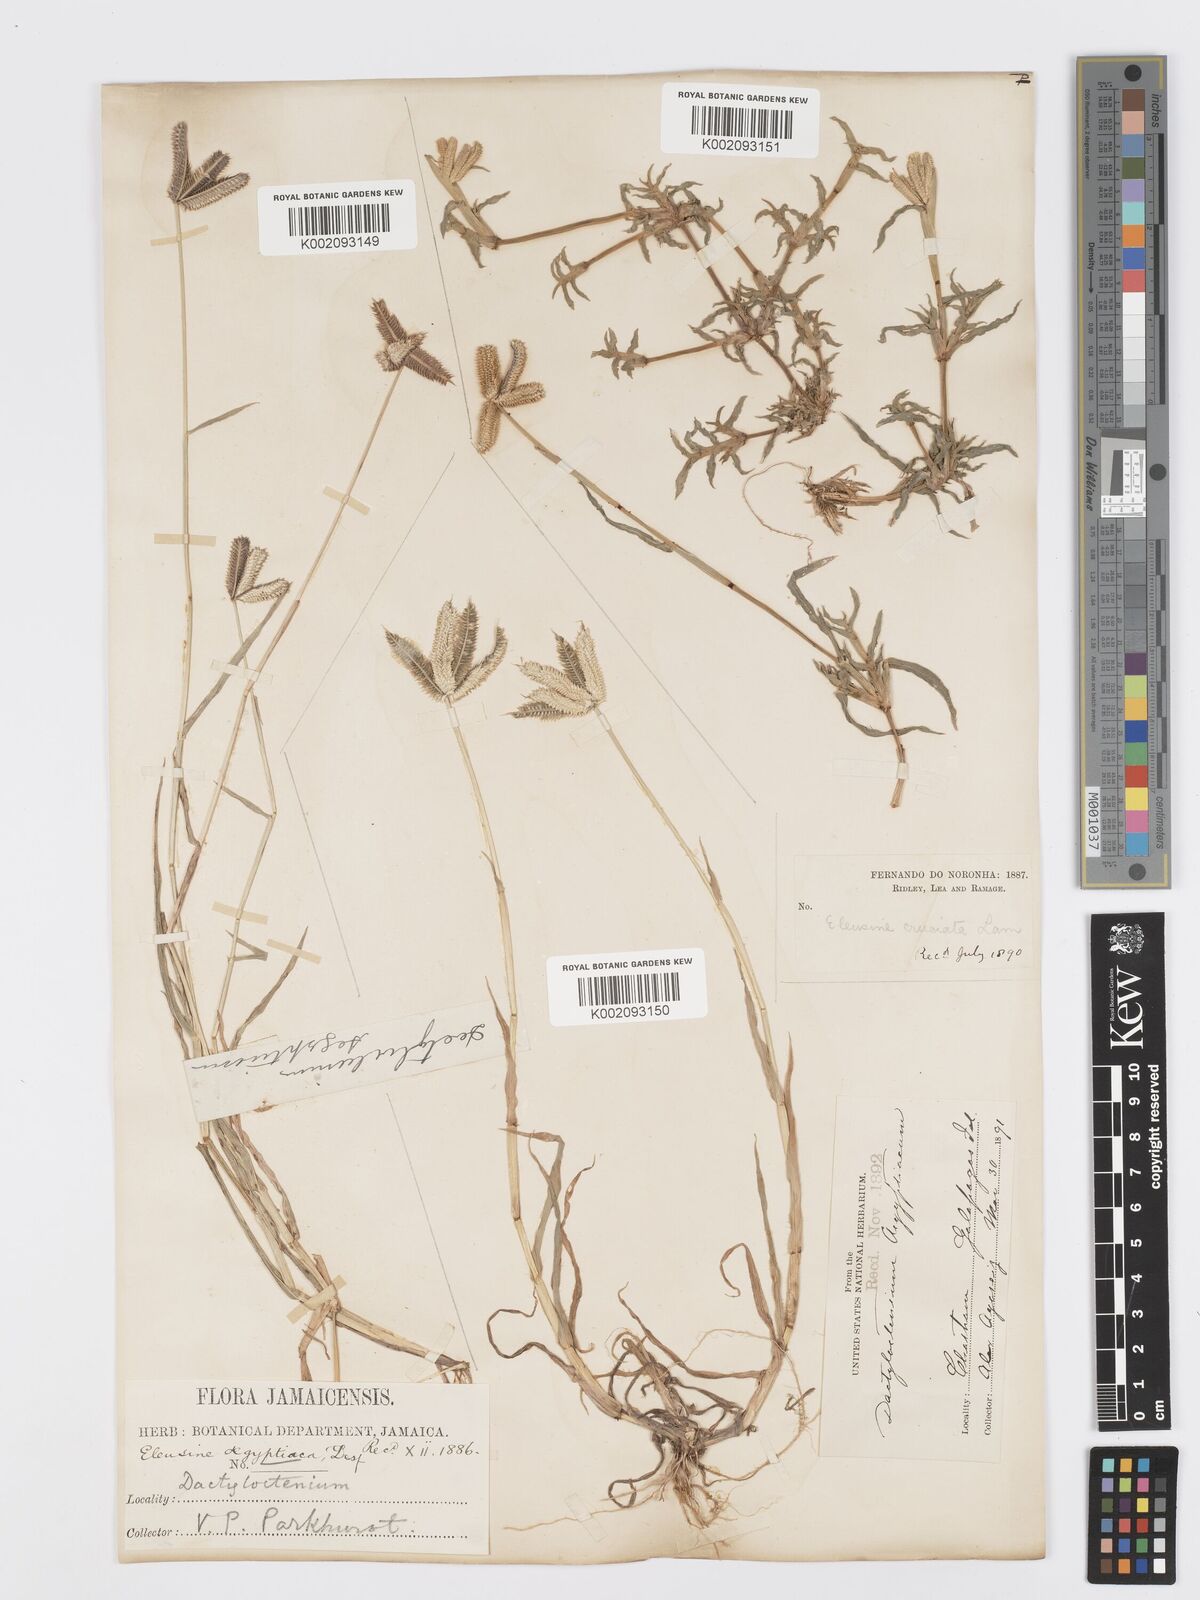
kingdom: Plantae
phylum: Tracheophyta
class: Liliopsida
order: Poales
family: Poaceae
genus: Dactyloctenium
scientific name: Dactyloctenium aegyptium
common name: Egyptian grass
